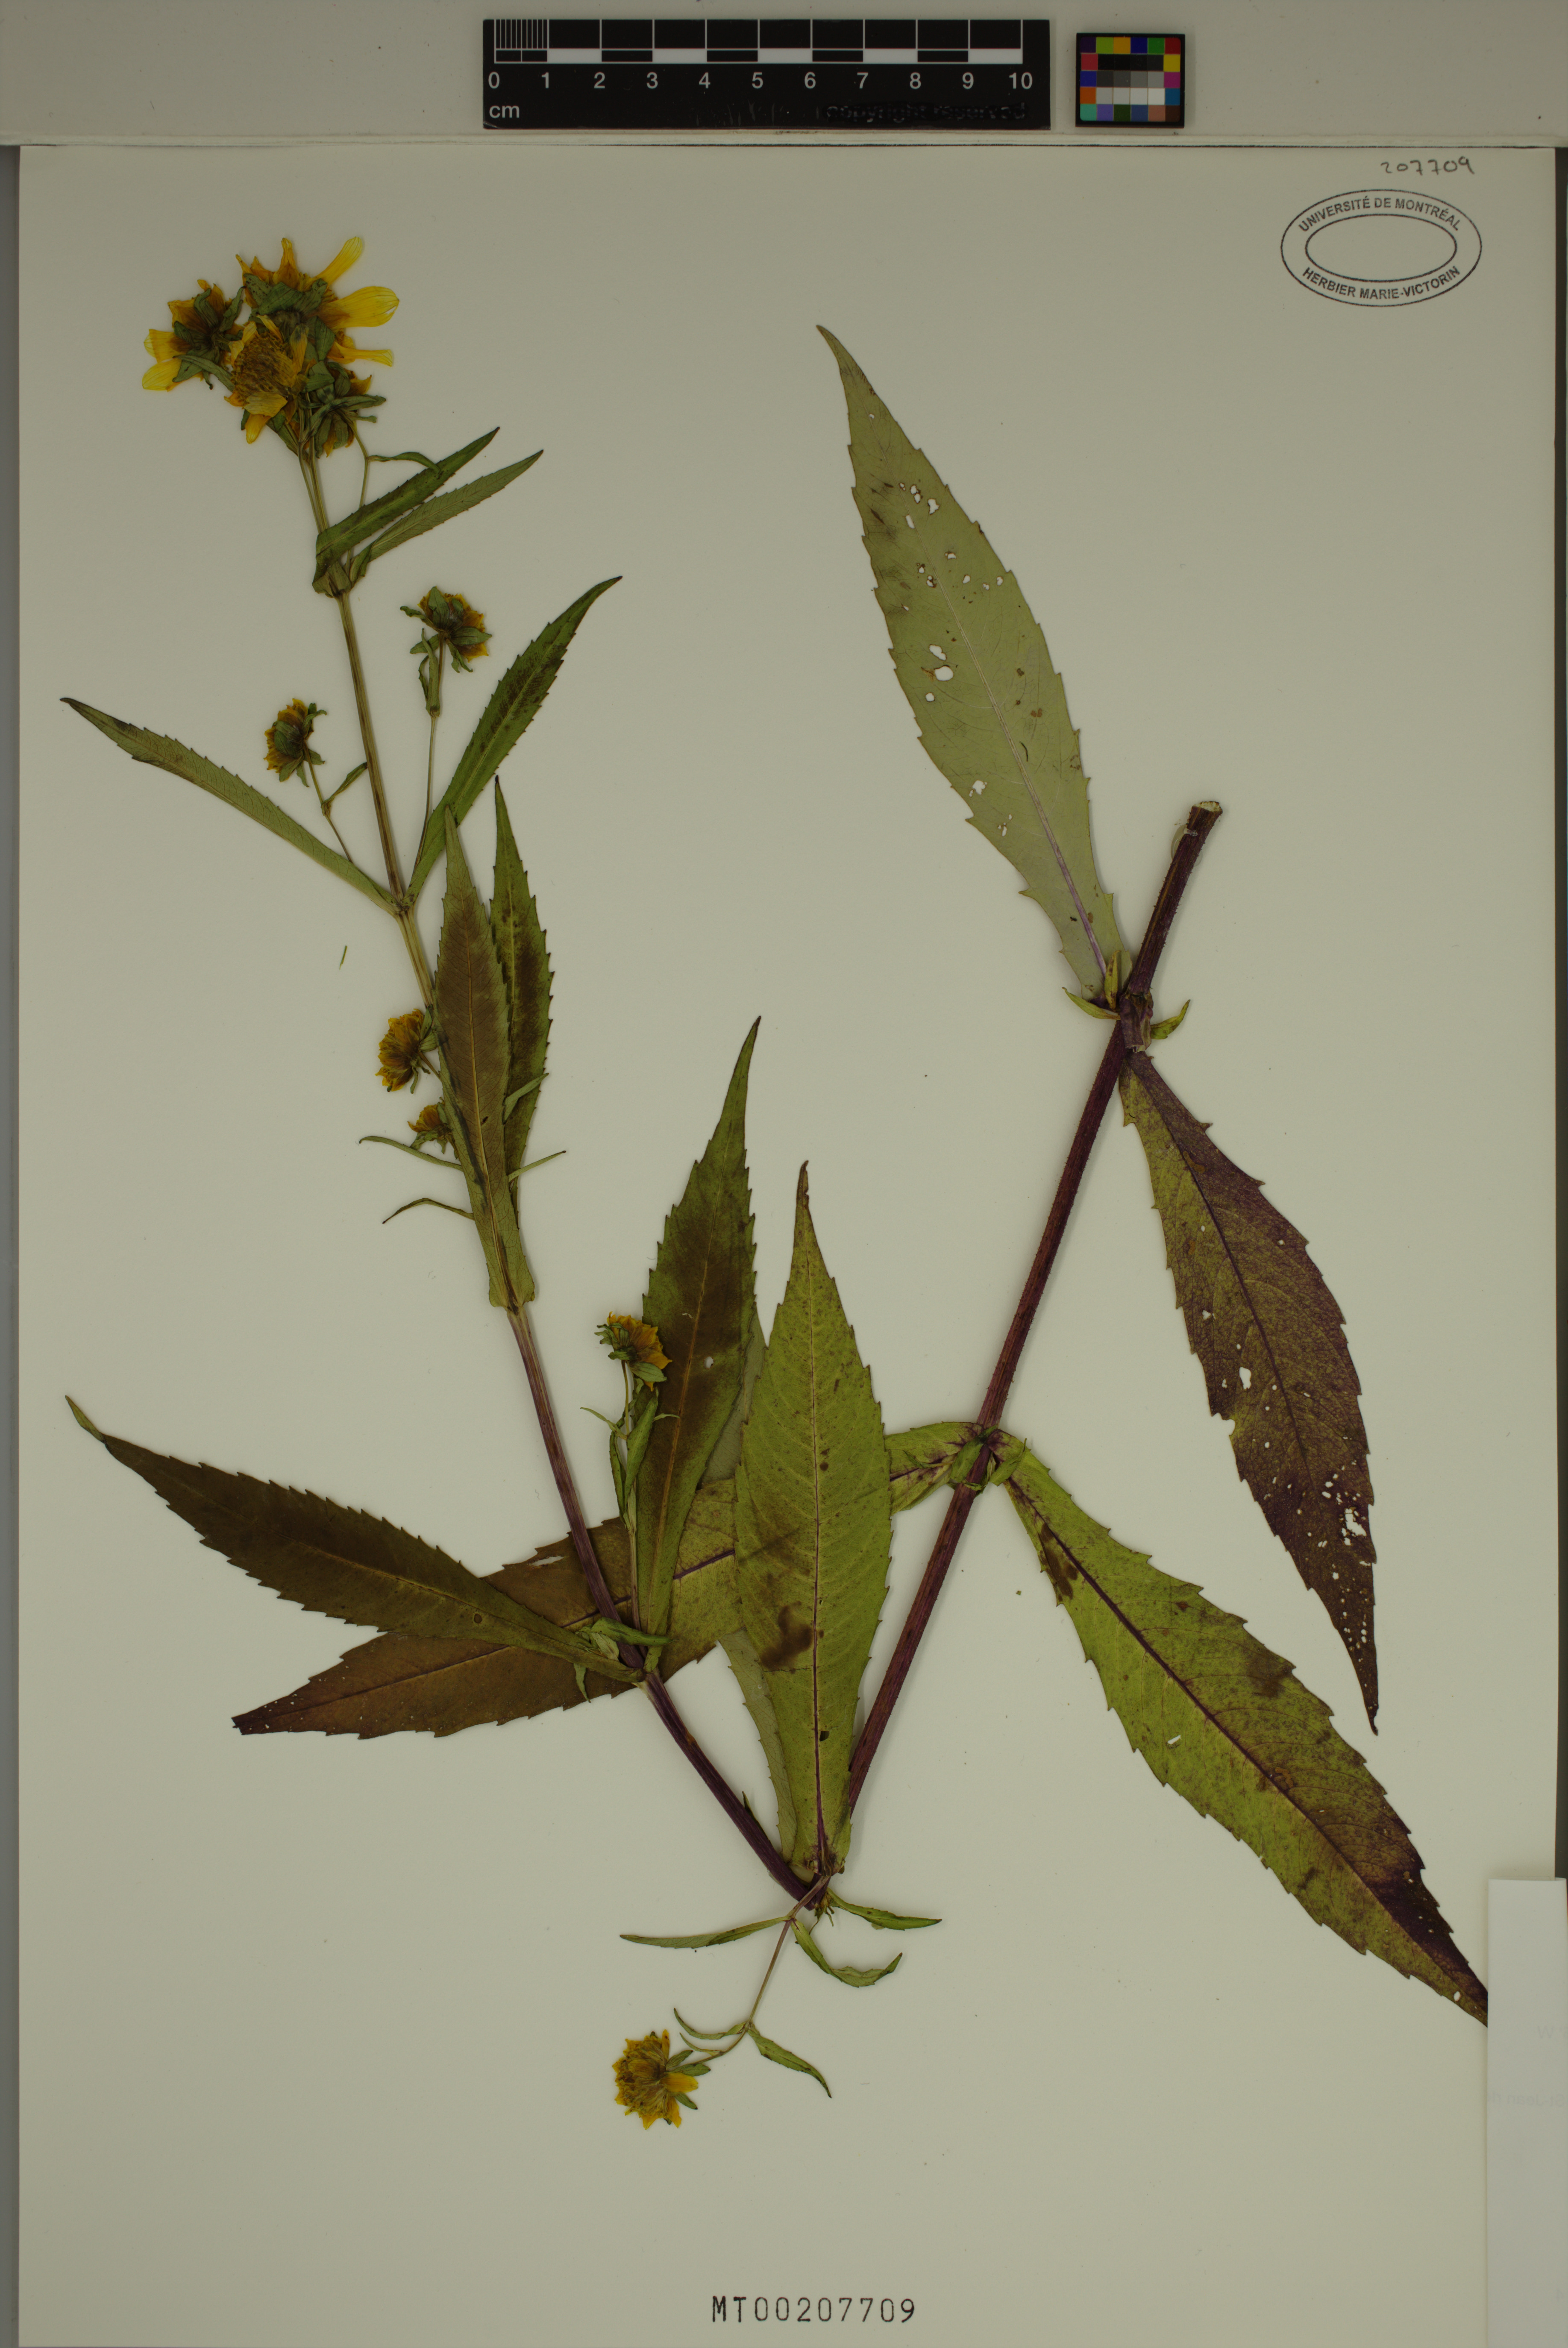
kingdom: Plantae
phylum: Tracheophyta
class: Magnoliopsida
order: Asterales
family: Asteraceae
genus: Bidens
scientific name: Bidens cernua
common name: Nodding bur-marigold
